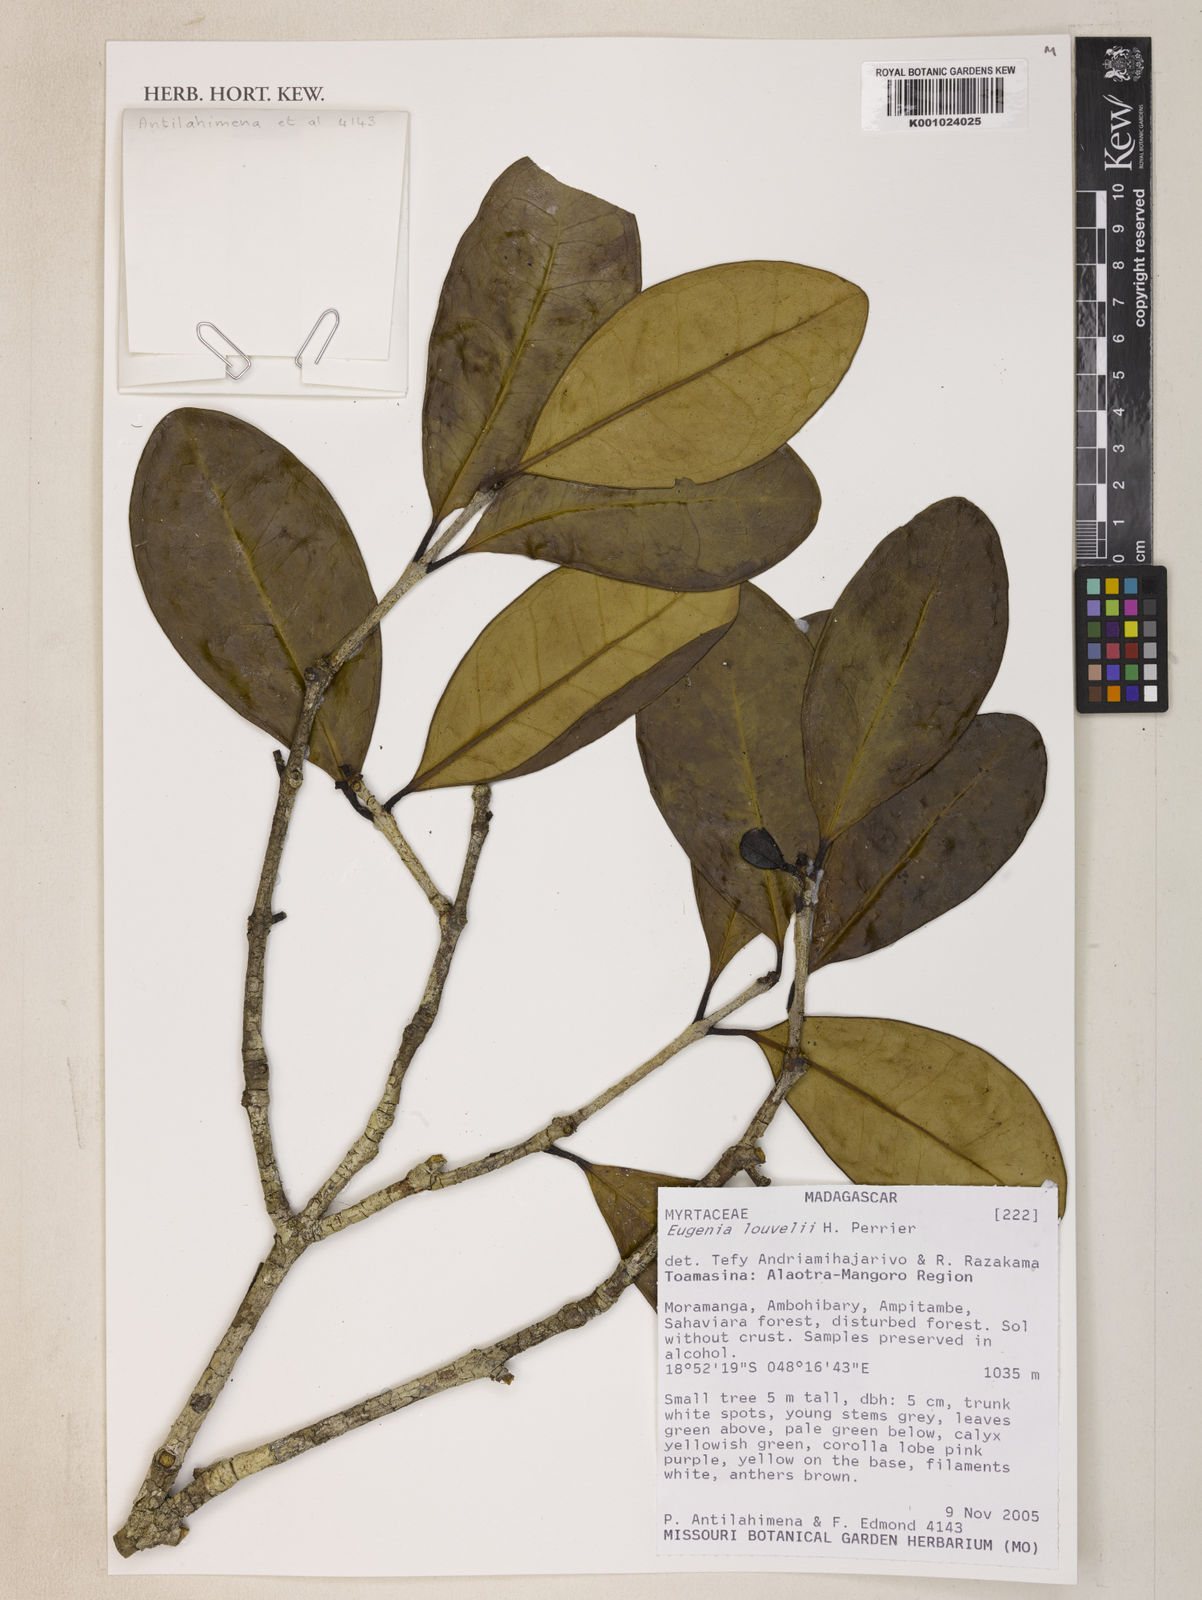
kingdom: Plantae
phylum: Tracheophyta
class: Magnoliopsida
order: Myrtales
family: Myrtaceae
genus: Eugenia
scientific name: Eugenia louvelii
